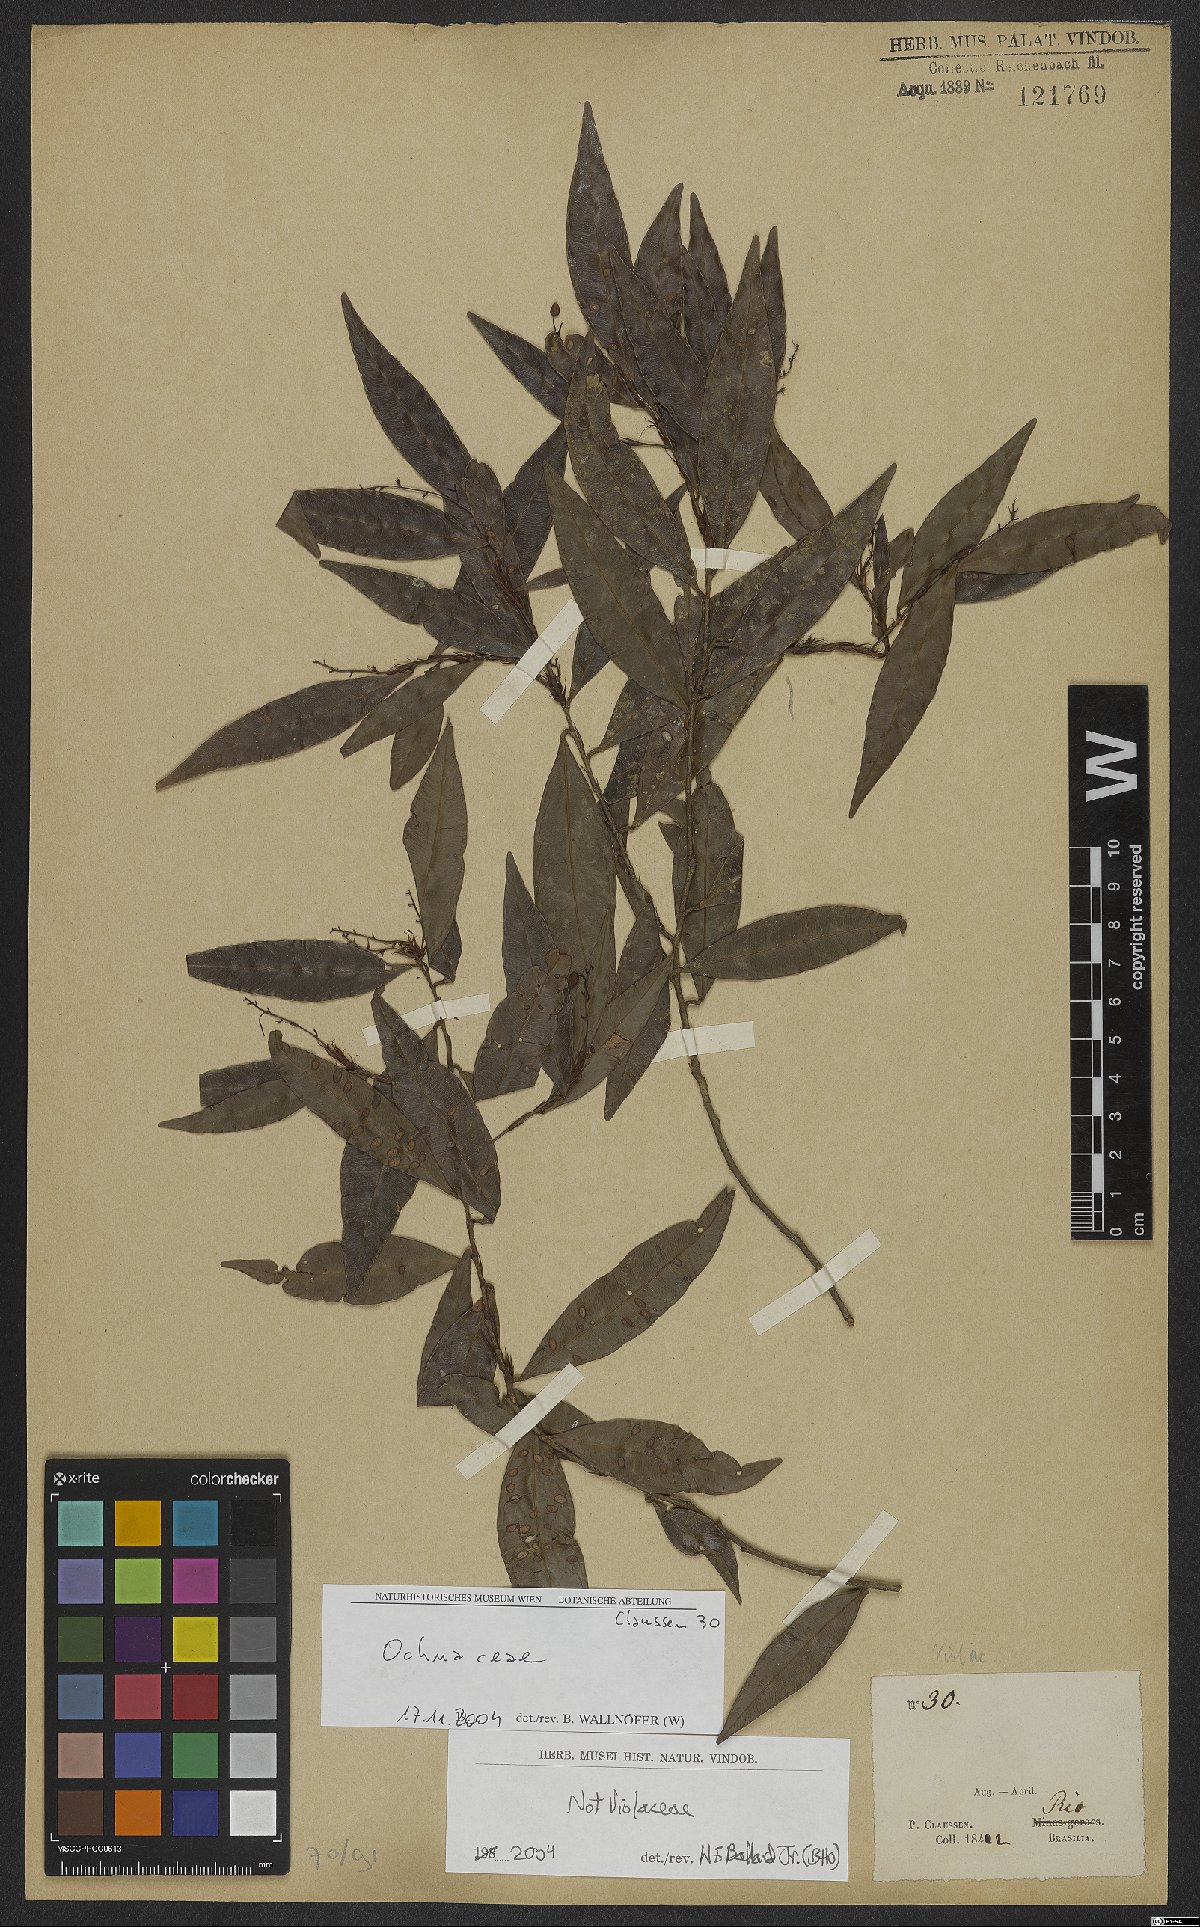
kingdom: Plantae
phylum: Tracheophyta
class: Magnoliopsida
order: Malpighiales
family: Ochnaceae
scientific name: Ochnaceae
